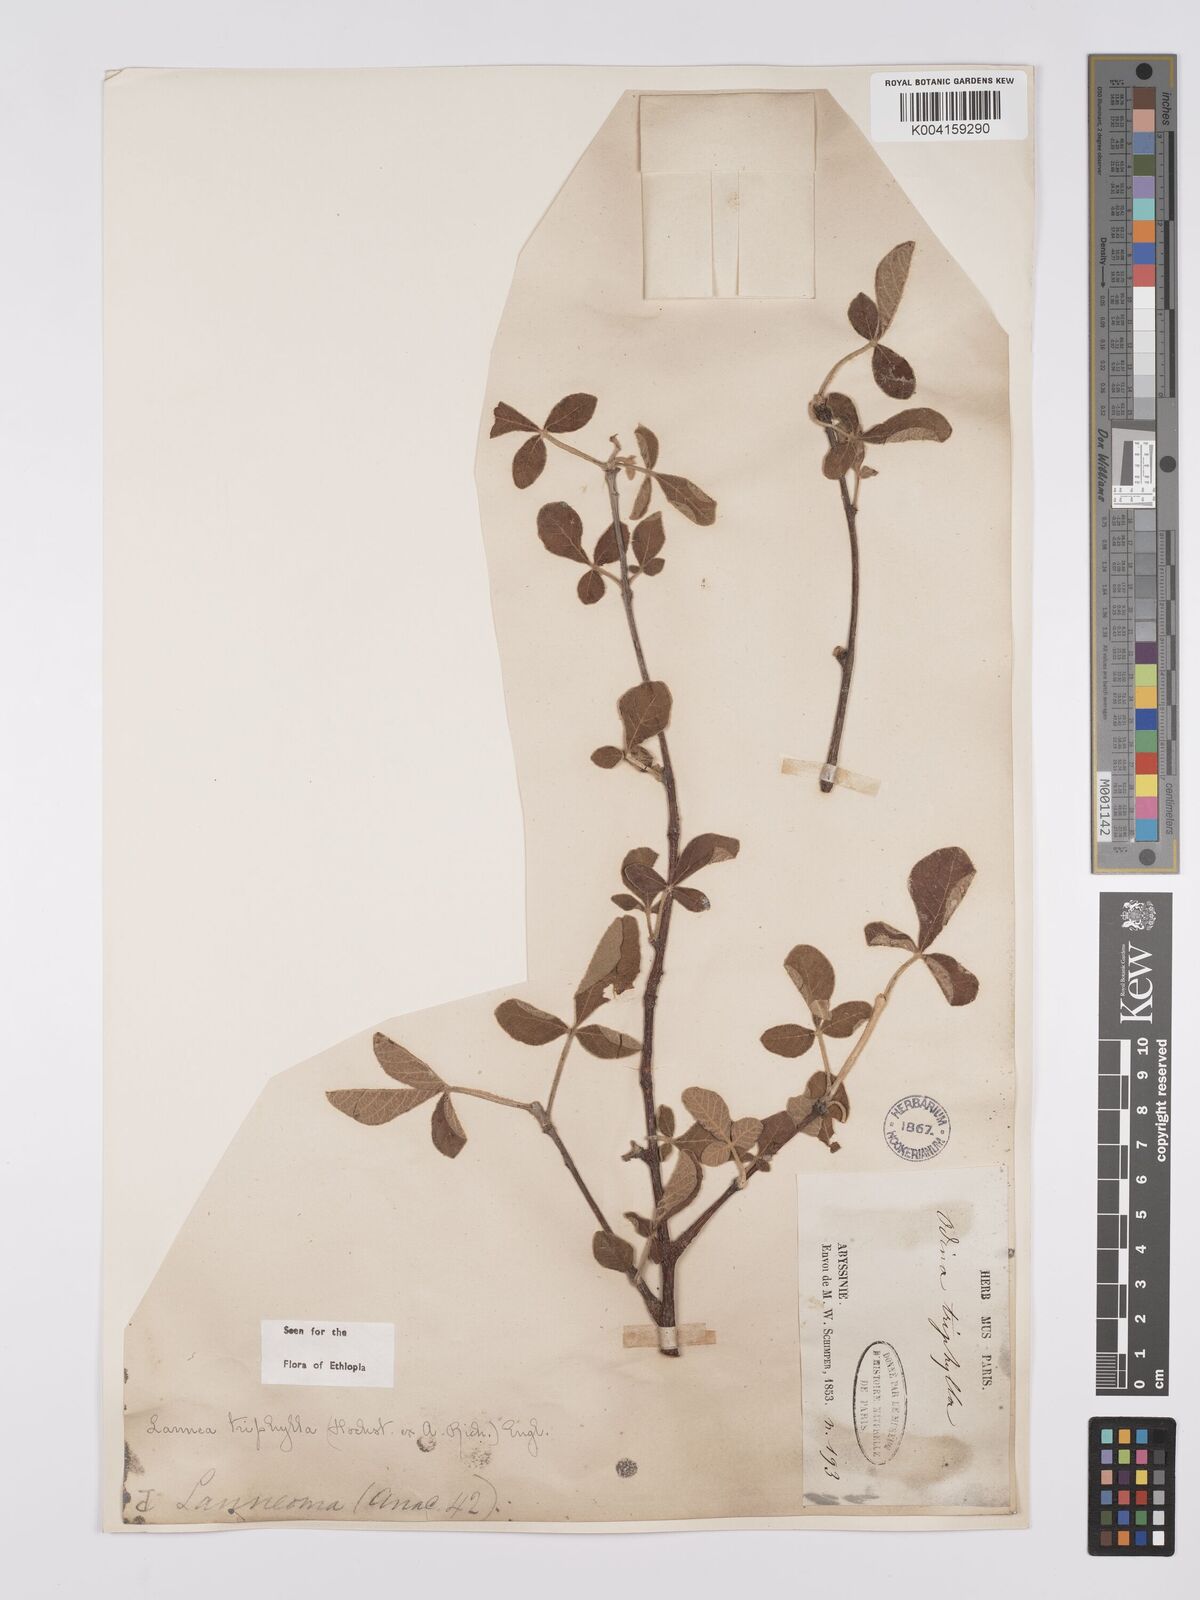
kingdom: Plantae
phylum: Tracheophyta
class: Magnoliopsida
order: Sapindales
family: Anacardiaceae
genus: Lannea
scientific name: Lannea triphylla
